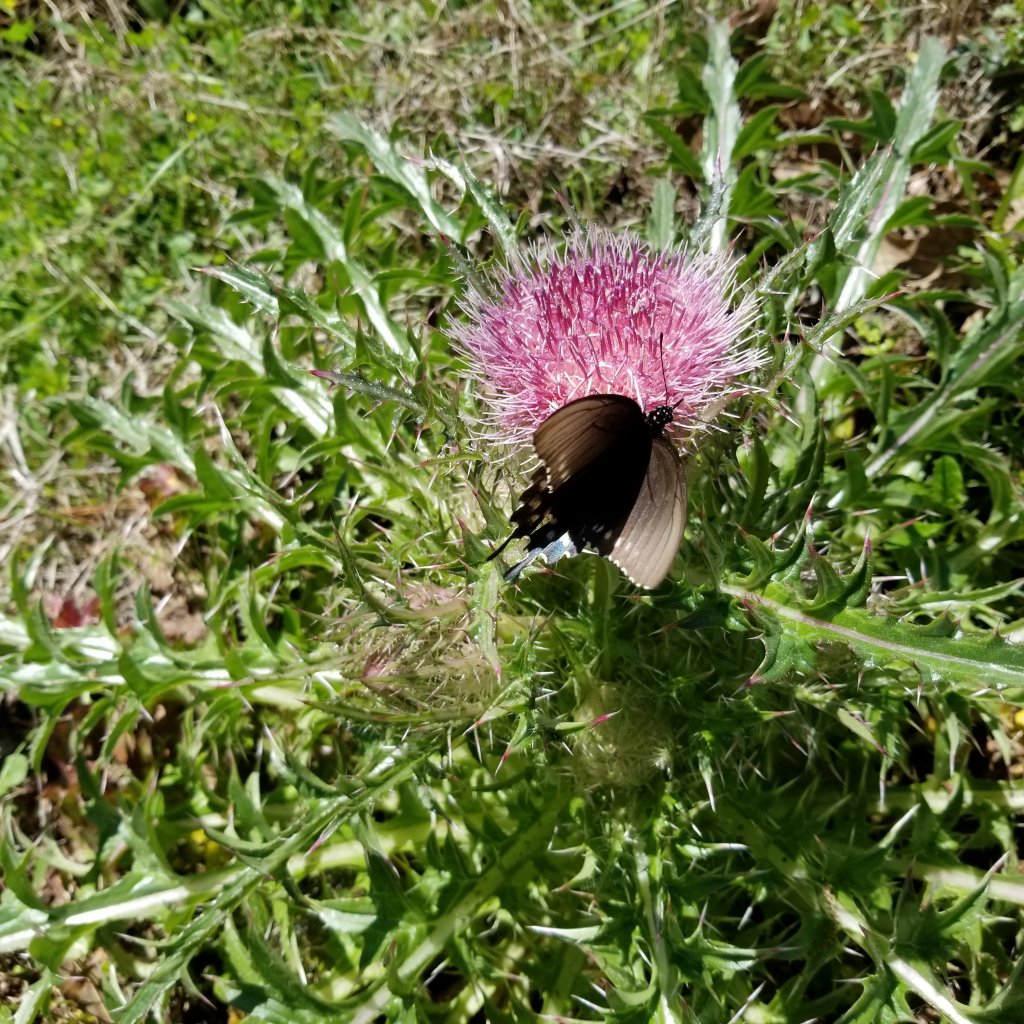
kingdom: Animalia
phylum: Arthropoda
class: Insecta
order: Lepidoptera
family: Papilionidae
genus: Battus
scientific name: Battus philenor
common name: Pipevine Swallowtail
